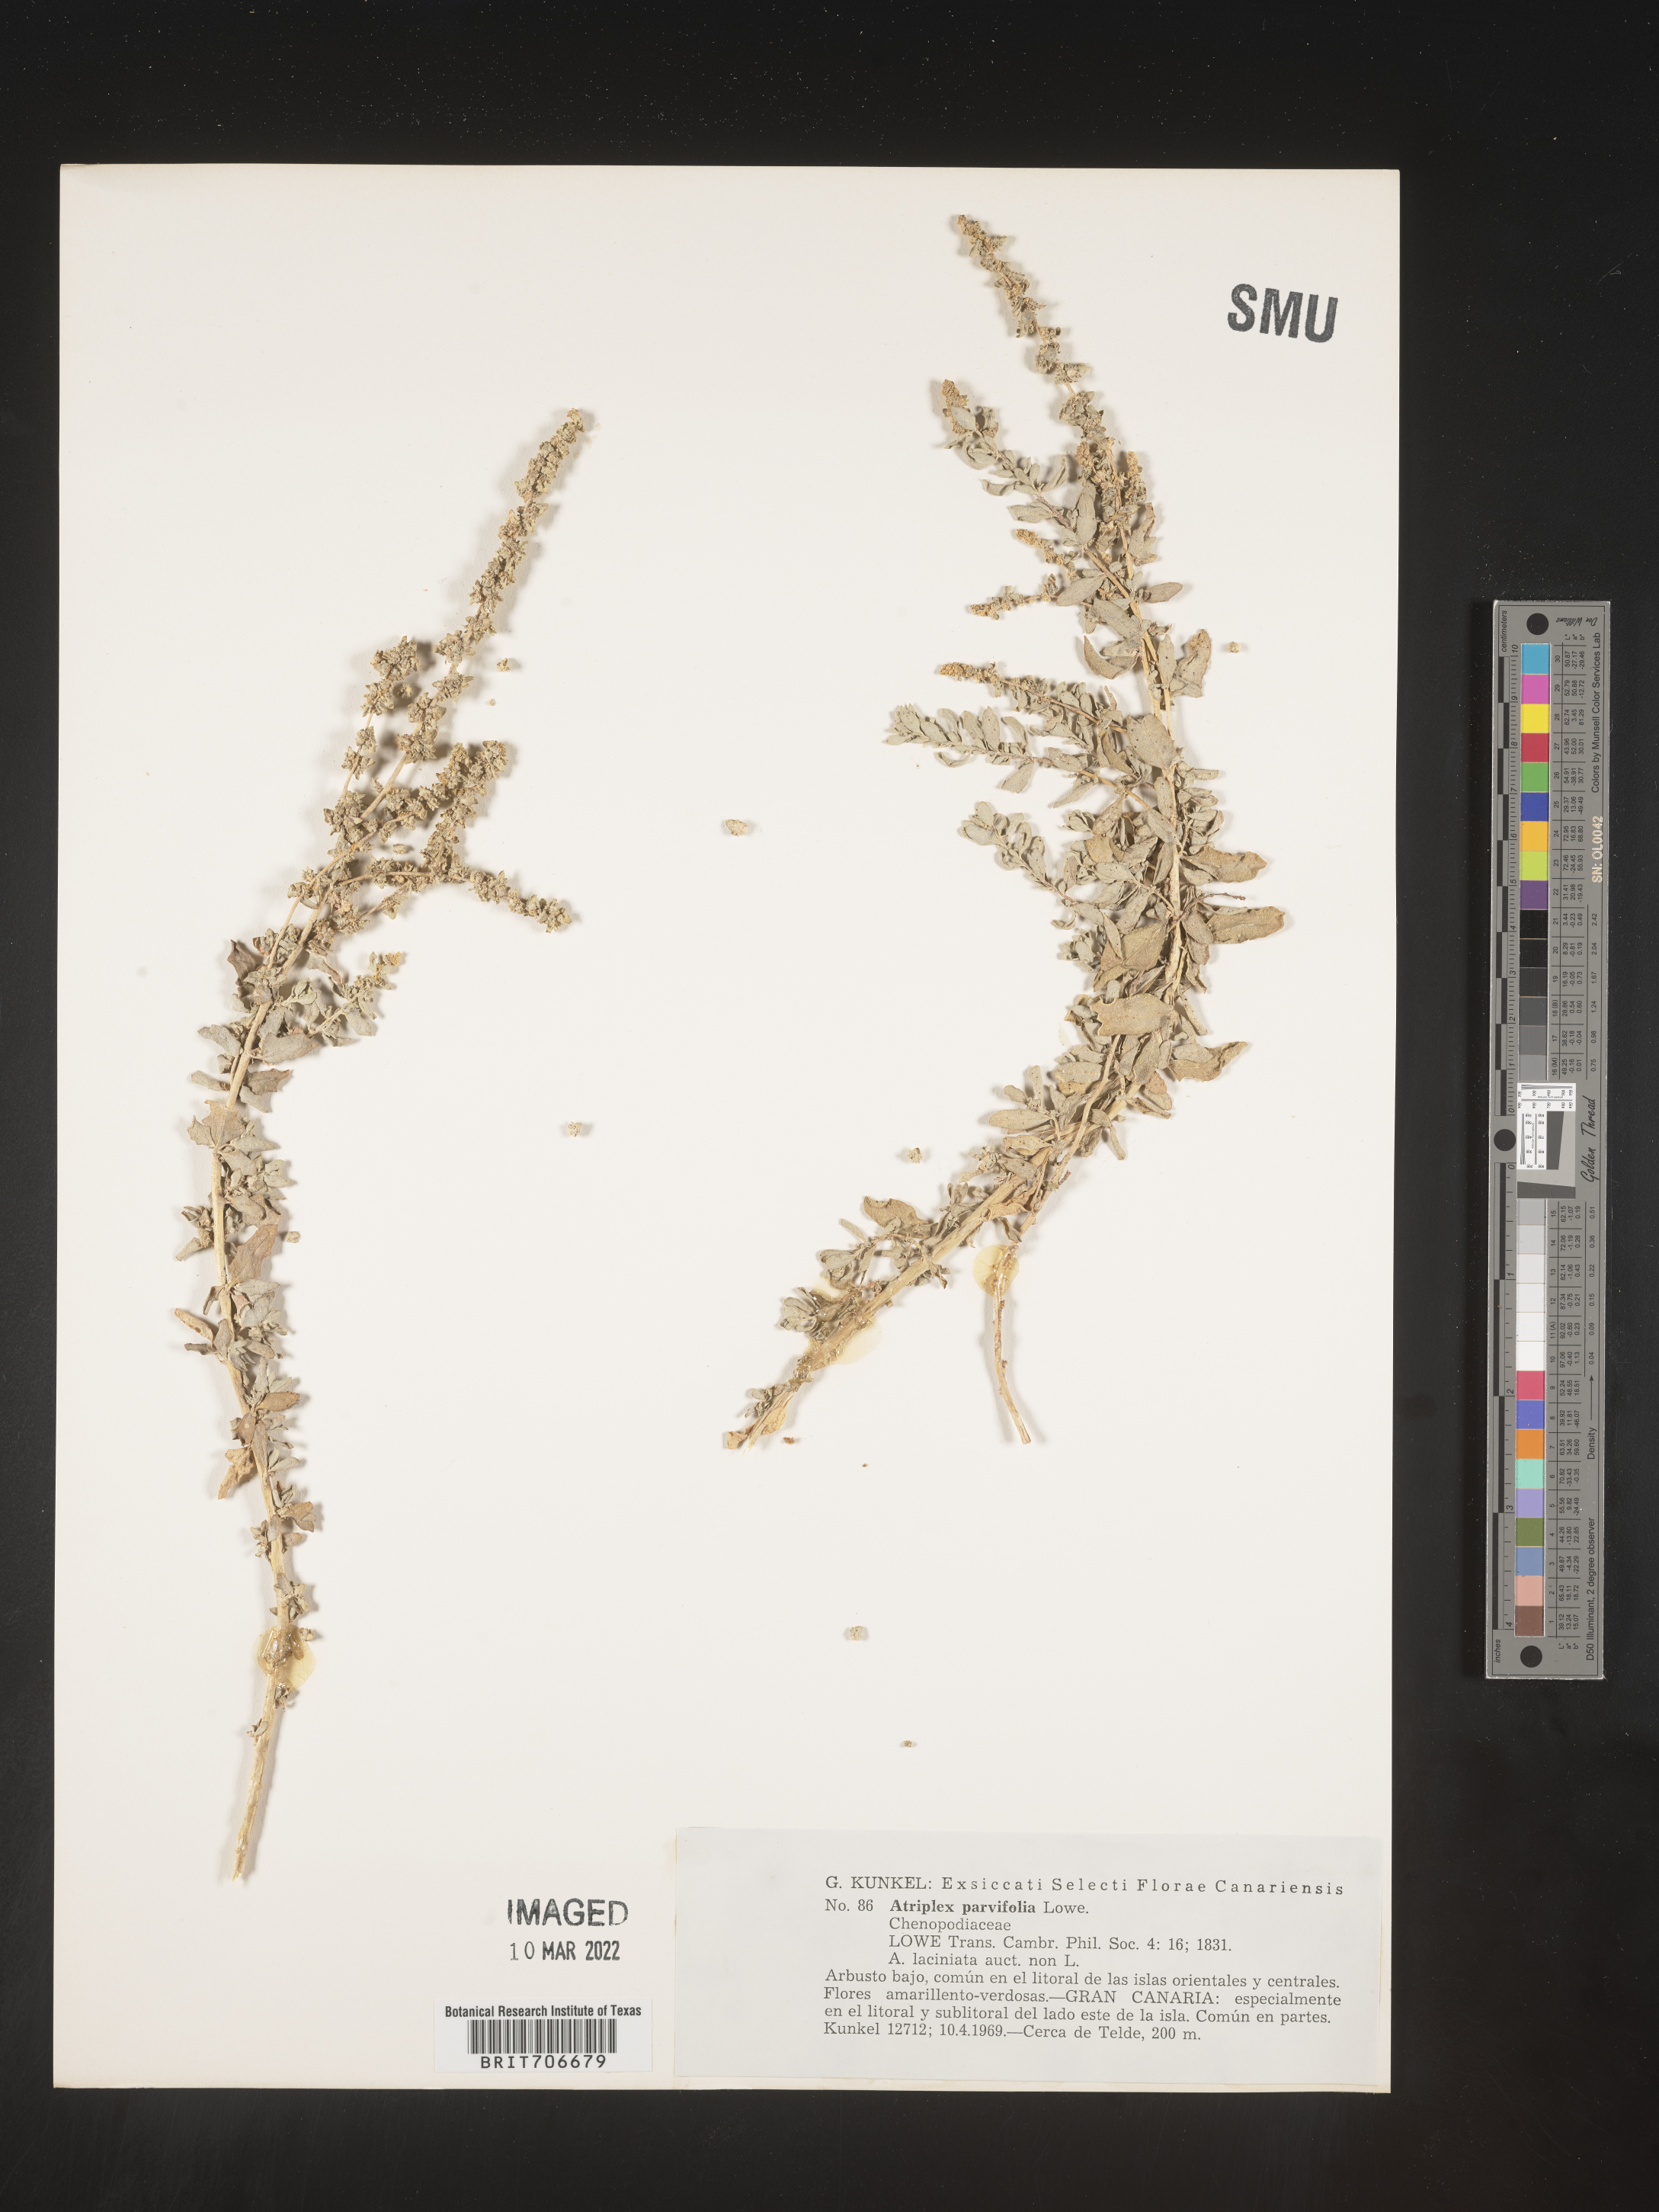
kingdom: Plantae
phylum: Tracheophyta
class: Magnoliopsida
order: Caryophyllales
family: Amaranthaceae
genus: Atriplex
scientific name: Atriplex
